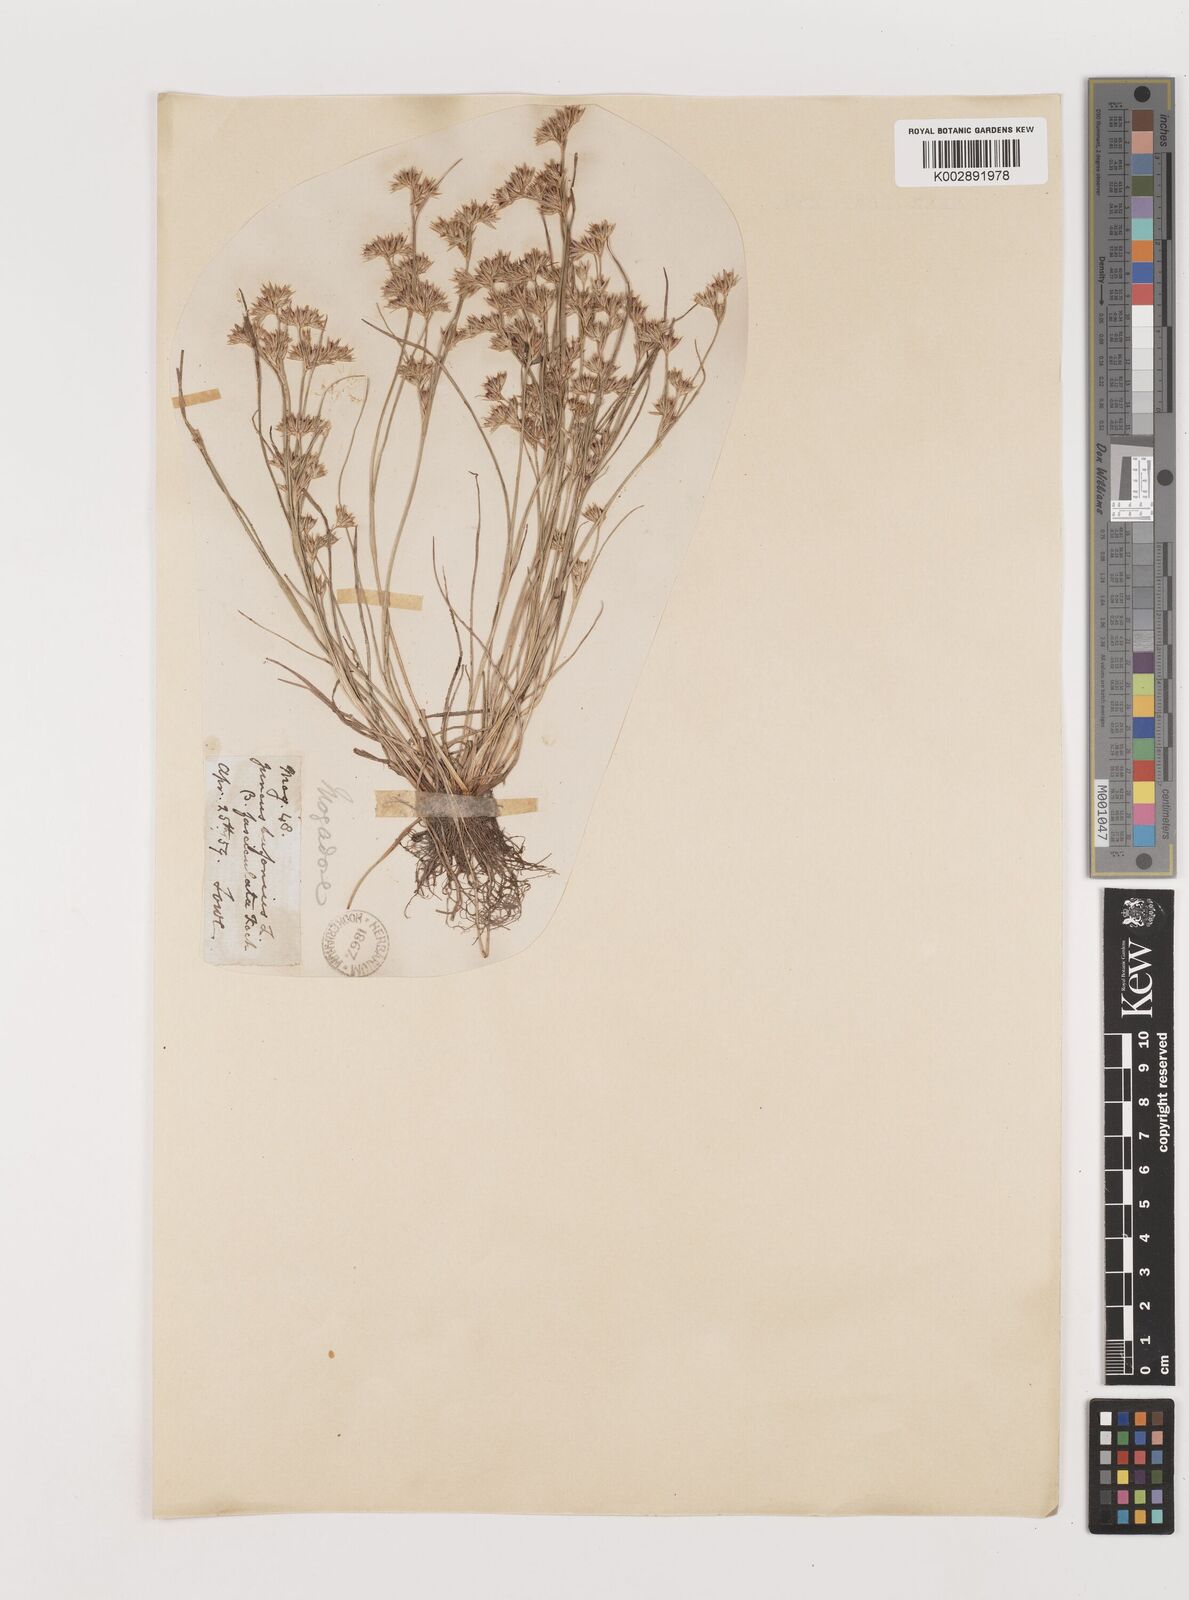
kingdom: Plantae
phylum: Tracheophyta
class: Liliopsida
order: Poales
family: Juncaceae
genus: Juncus
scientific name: Juncus bufonius
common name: Toad rush
